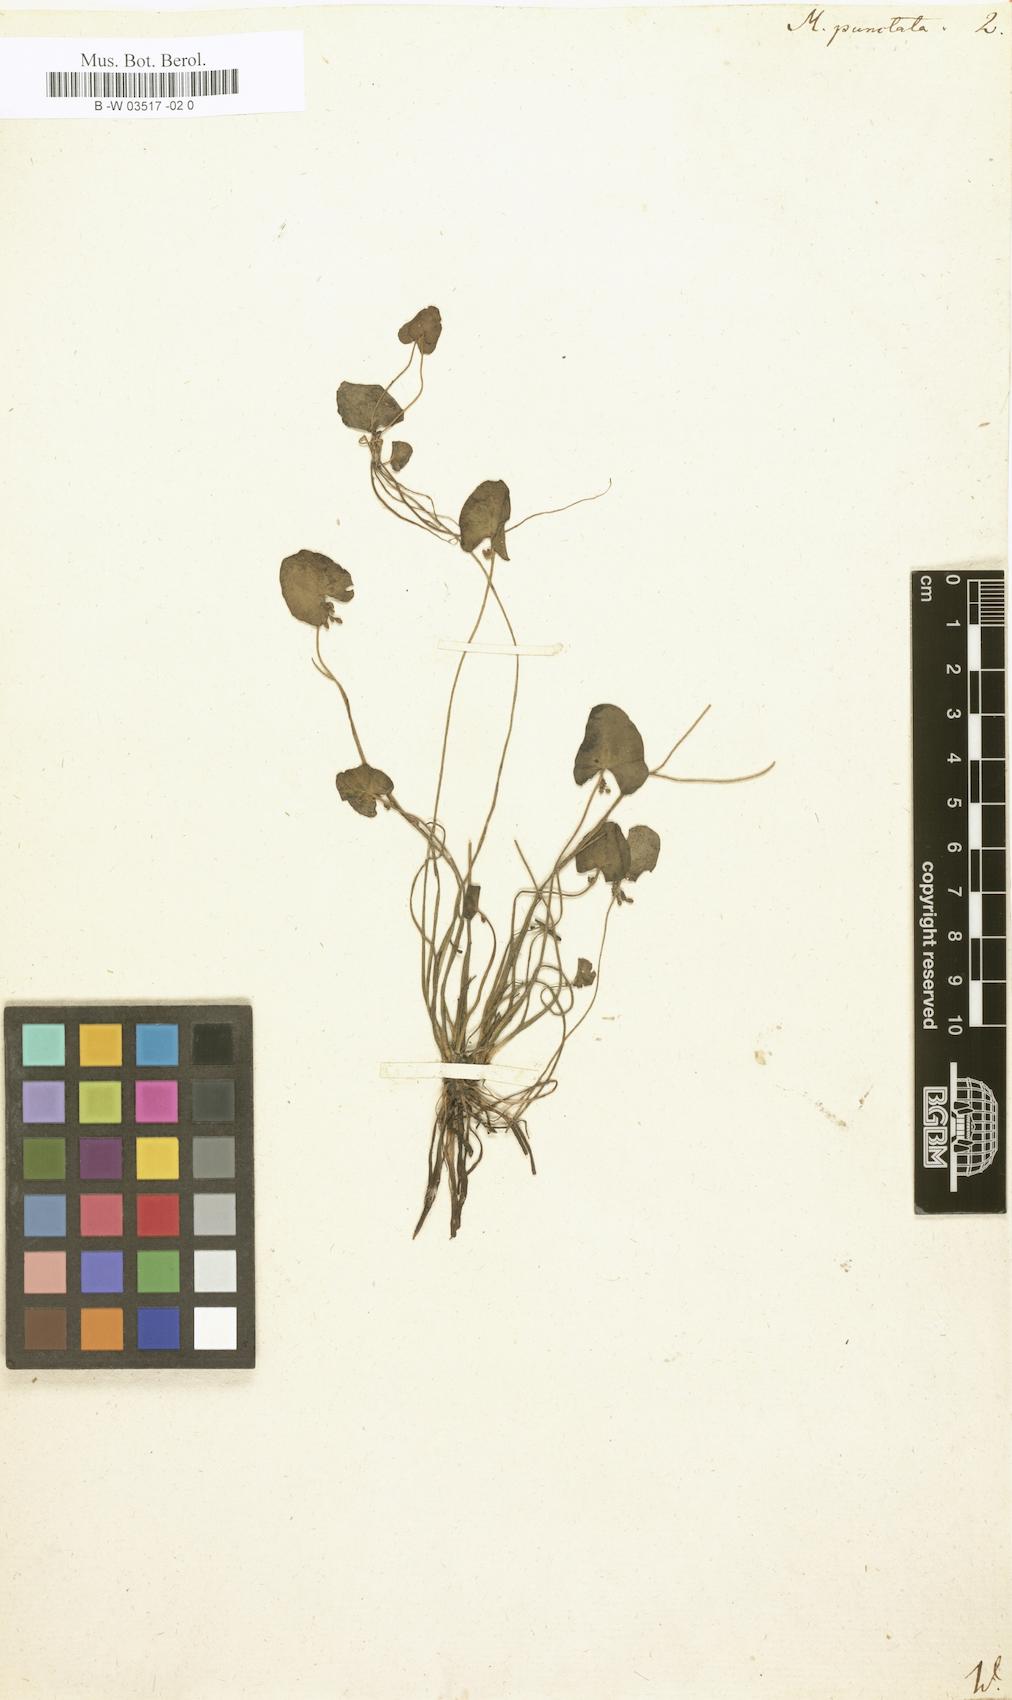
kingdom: Plantae
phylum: Tracheophyta
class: Magnoliopsida
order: Asterales
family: Menyanthaceae
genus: Nymphoides
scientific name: Nymphoides cordata
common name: Eight-angled floatingheart
